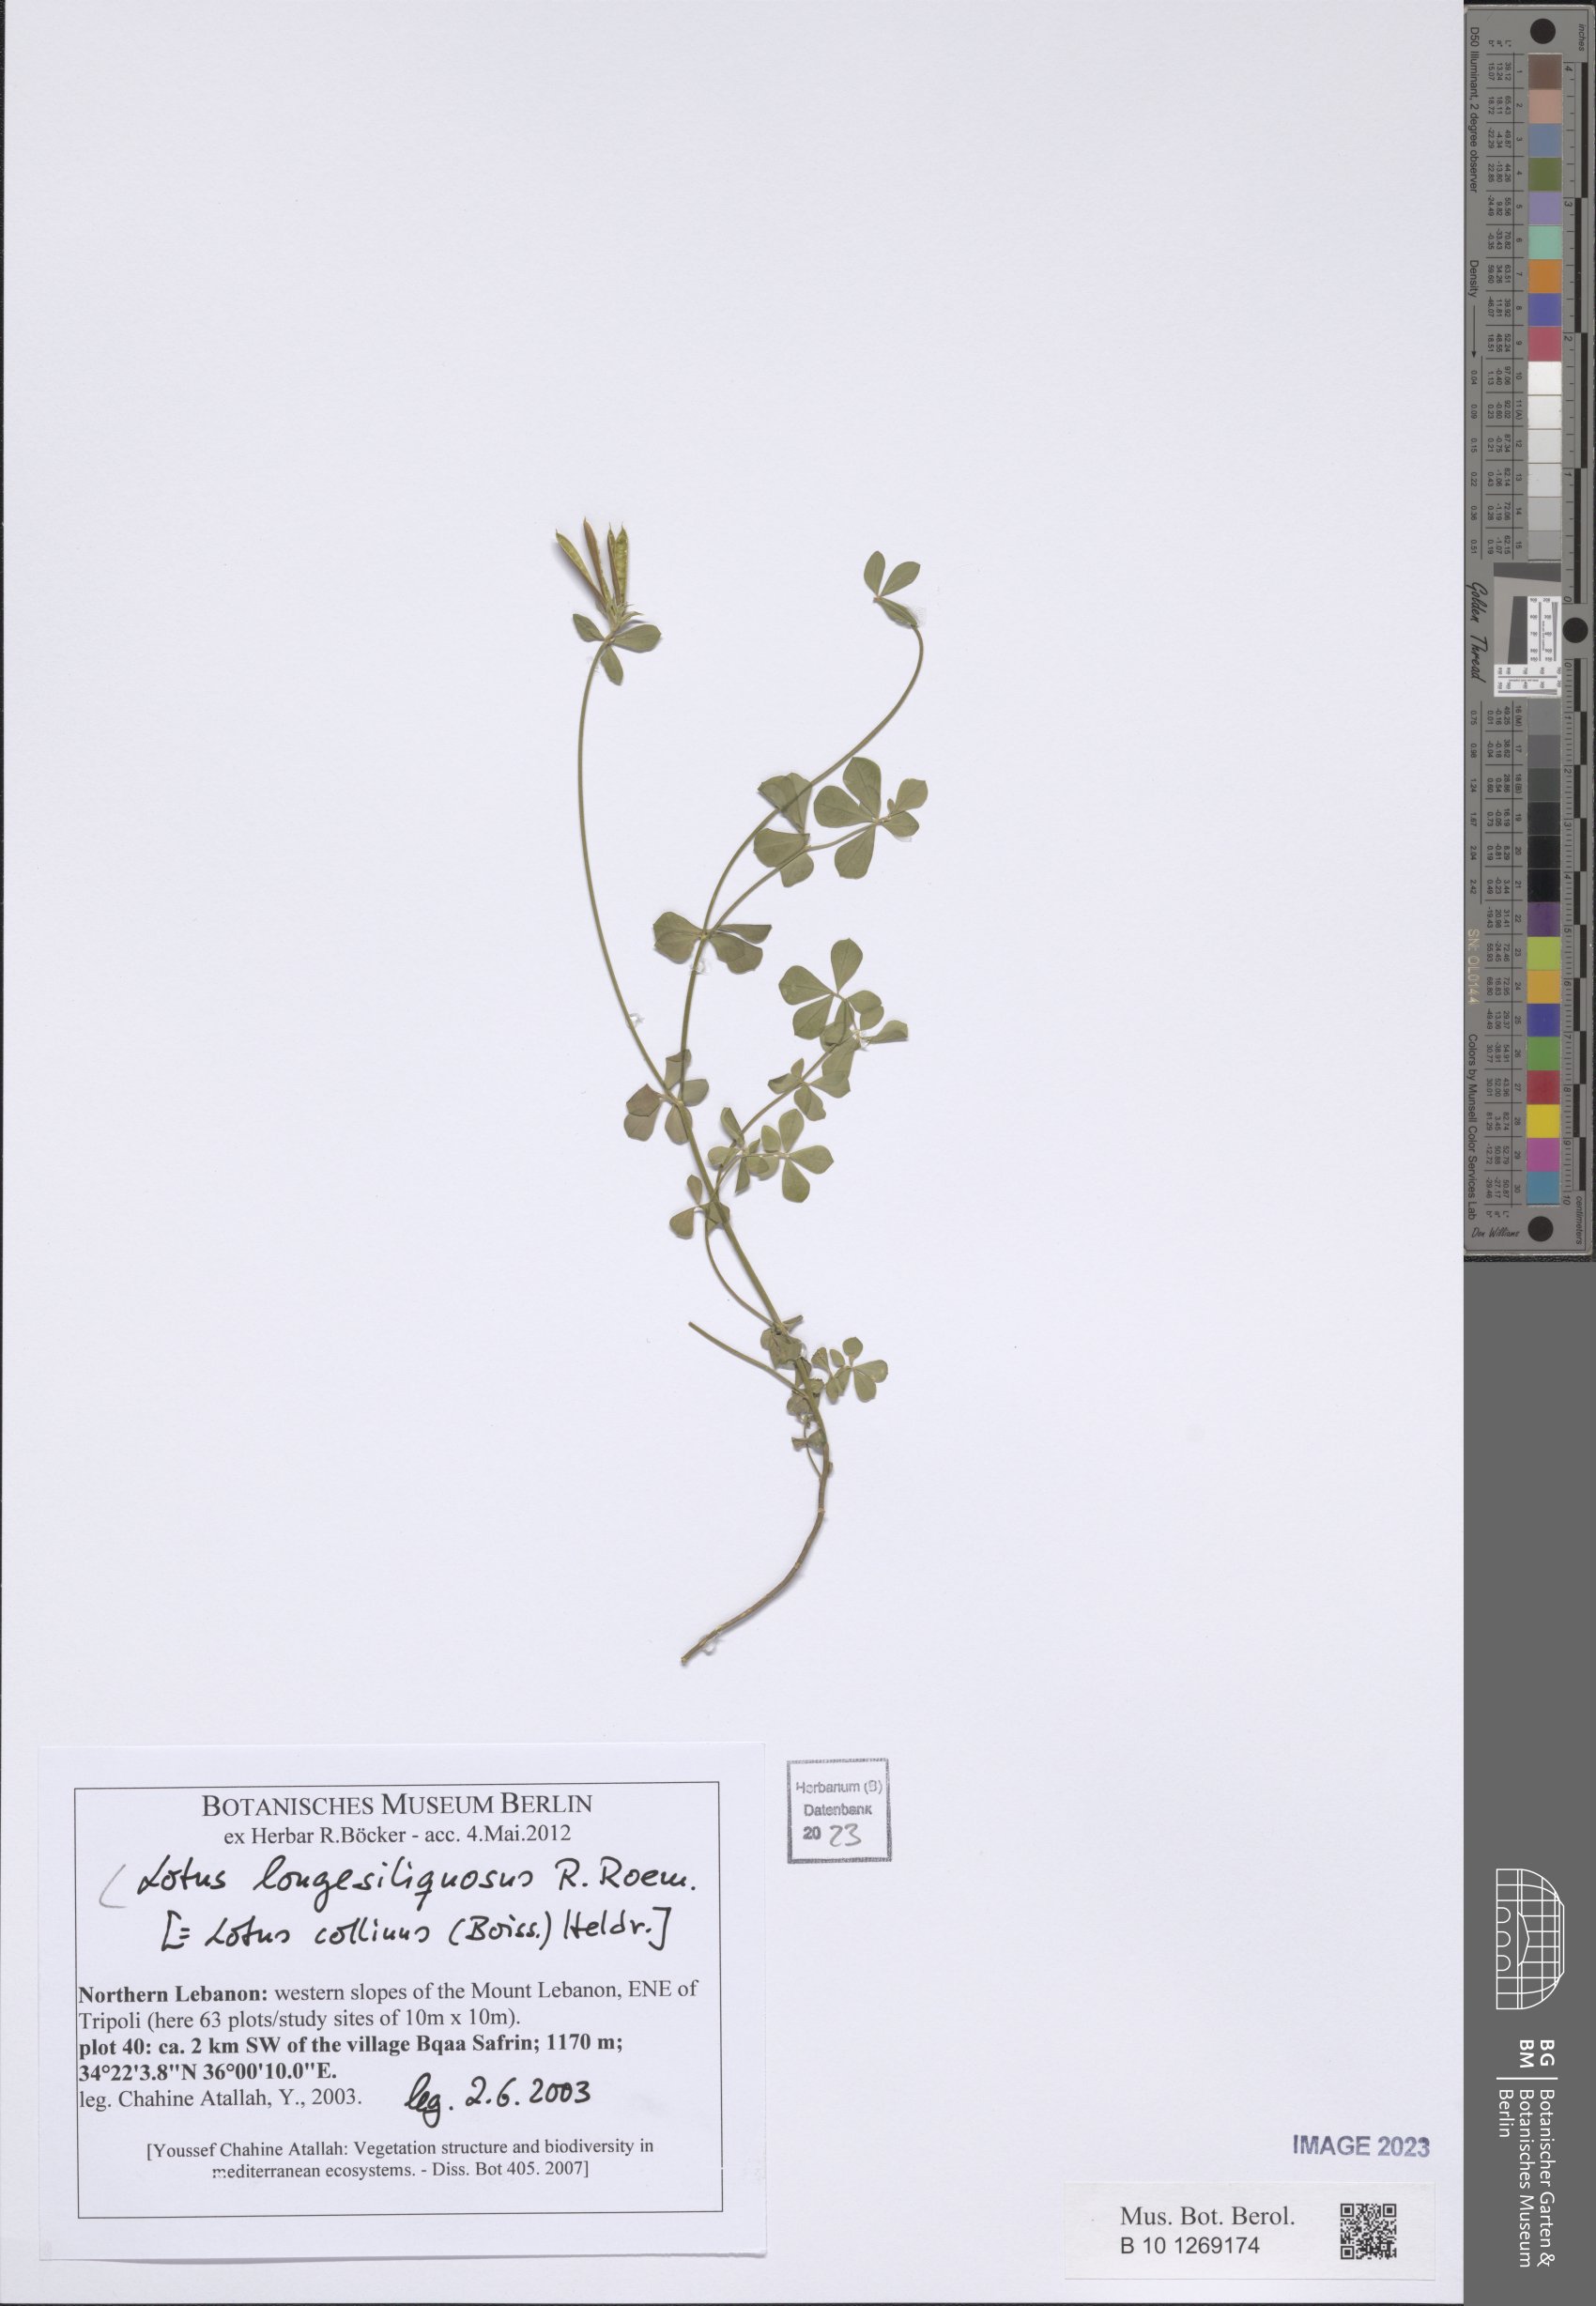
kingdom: Plantae
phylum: Tracheophyta
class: Magnoliopsida
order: Fabales
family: Fabaceae
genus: Lotus
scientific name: Lotus longesiliquosus
